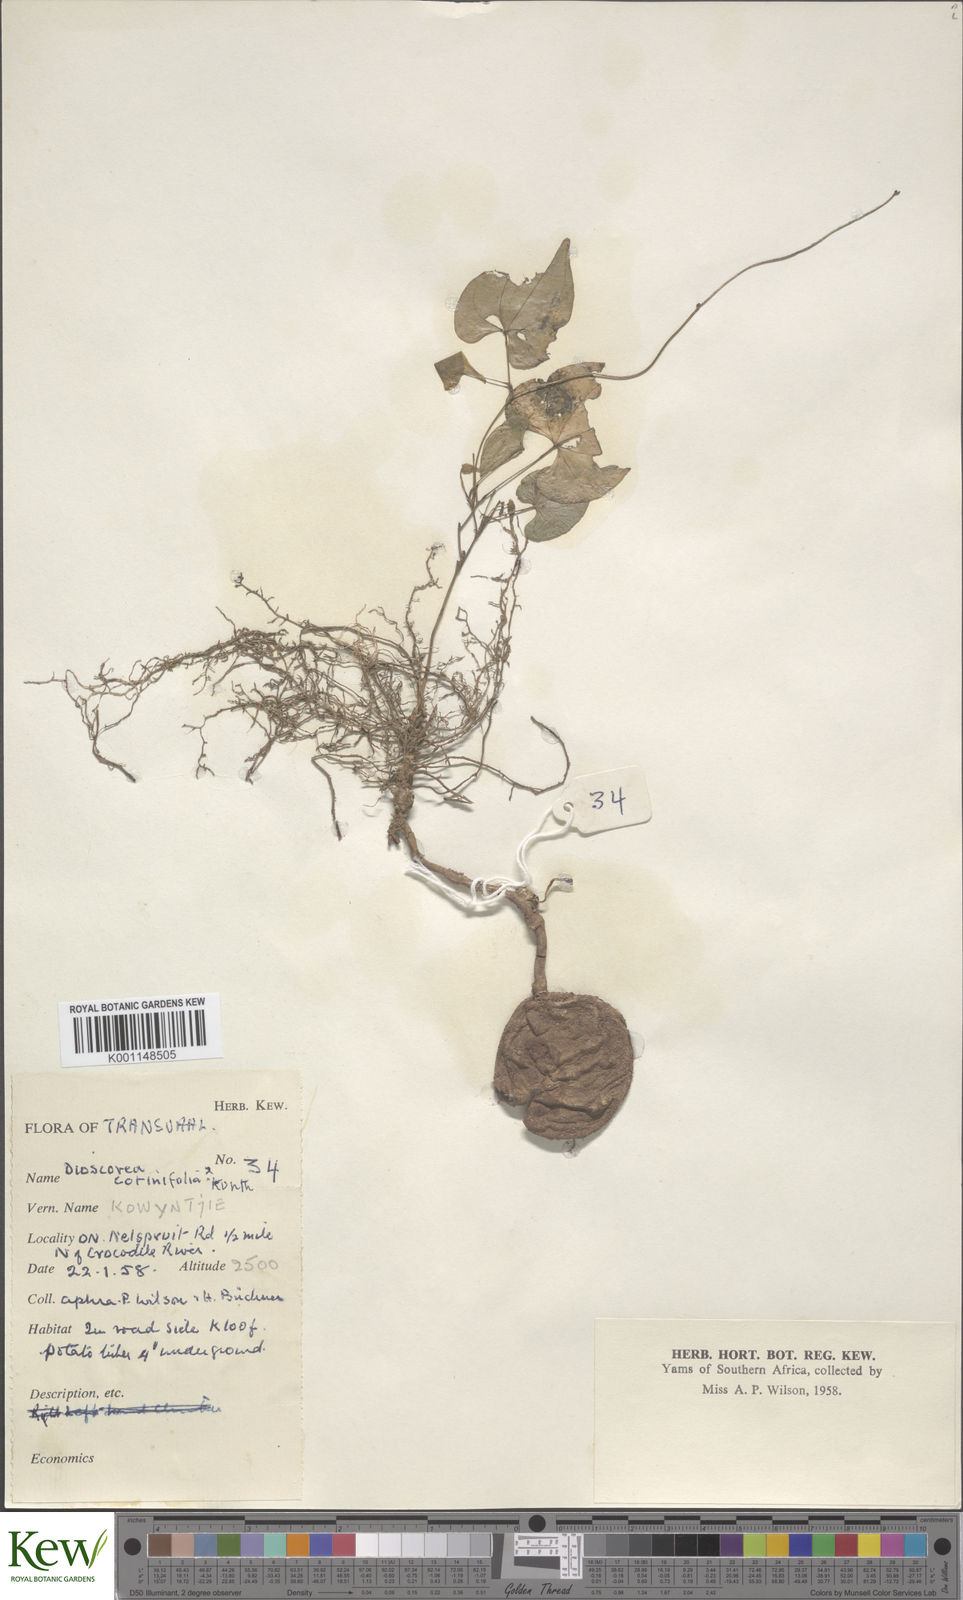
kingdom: Plantae
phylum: Tracheophyta
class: Liliopsida
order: Dioscoreales
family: Dioscoreaceae
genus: Dioscorea
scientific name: Dioscorea cotinifolia
